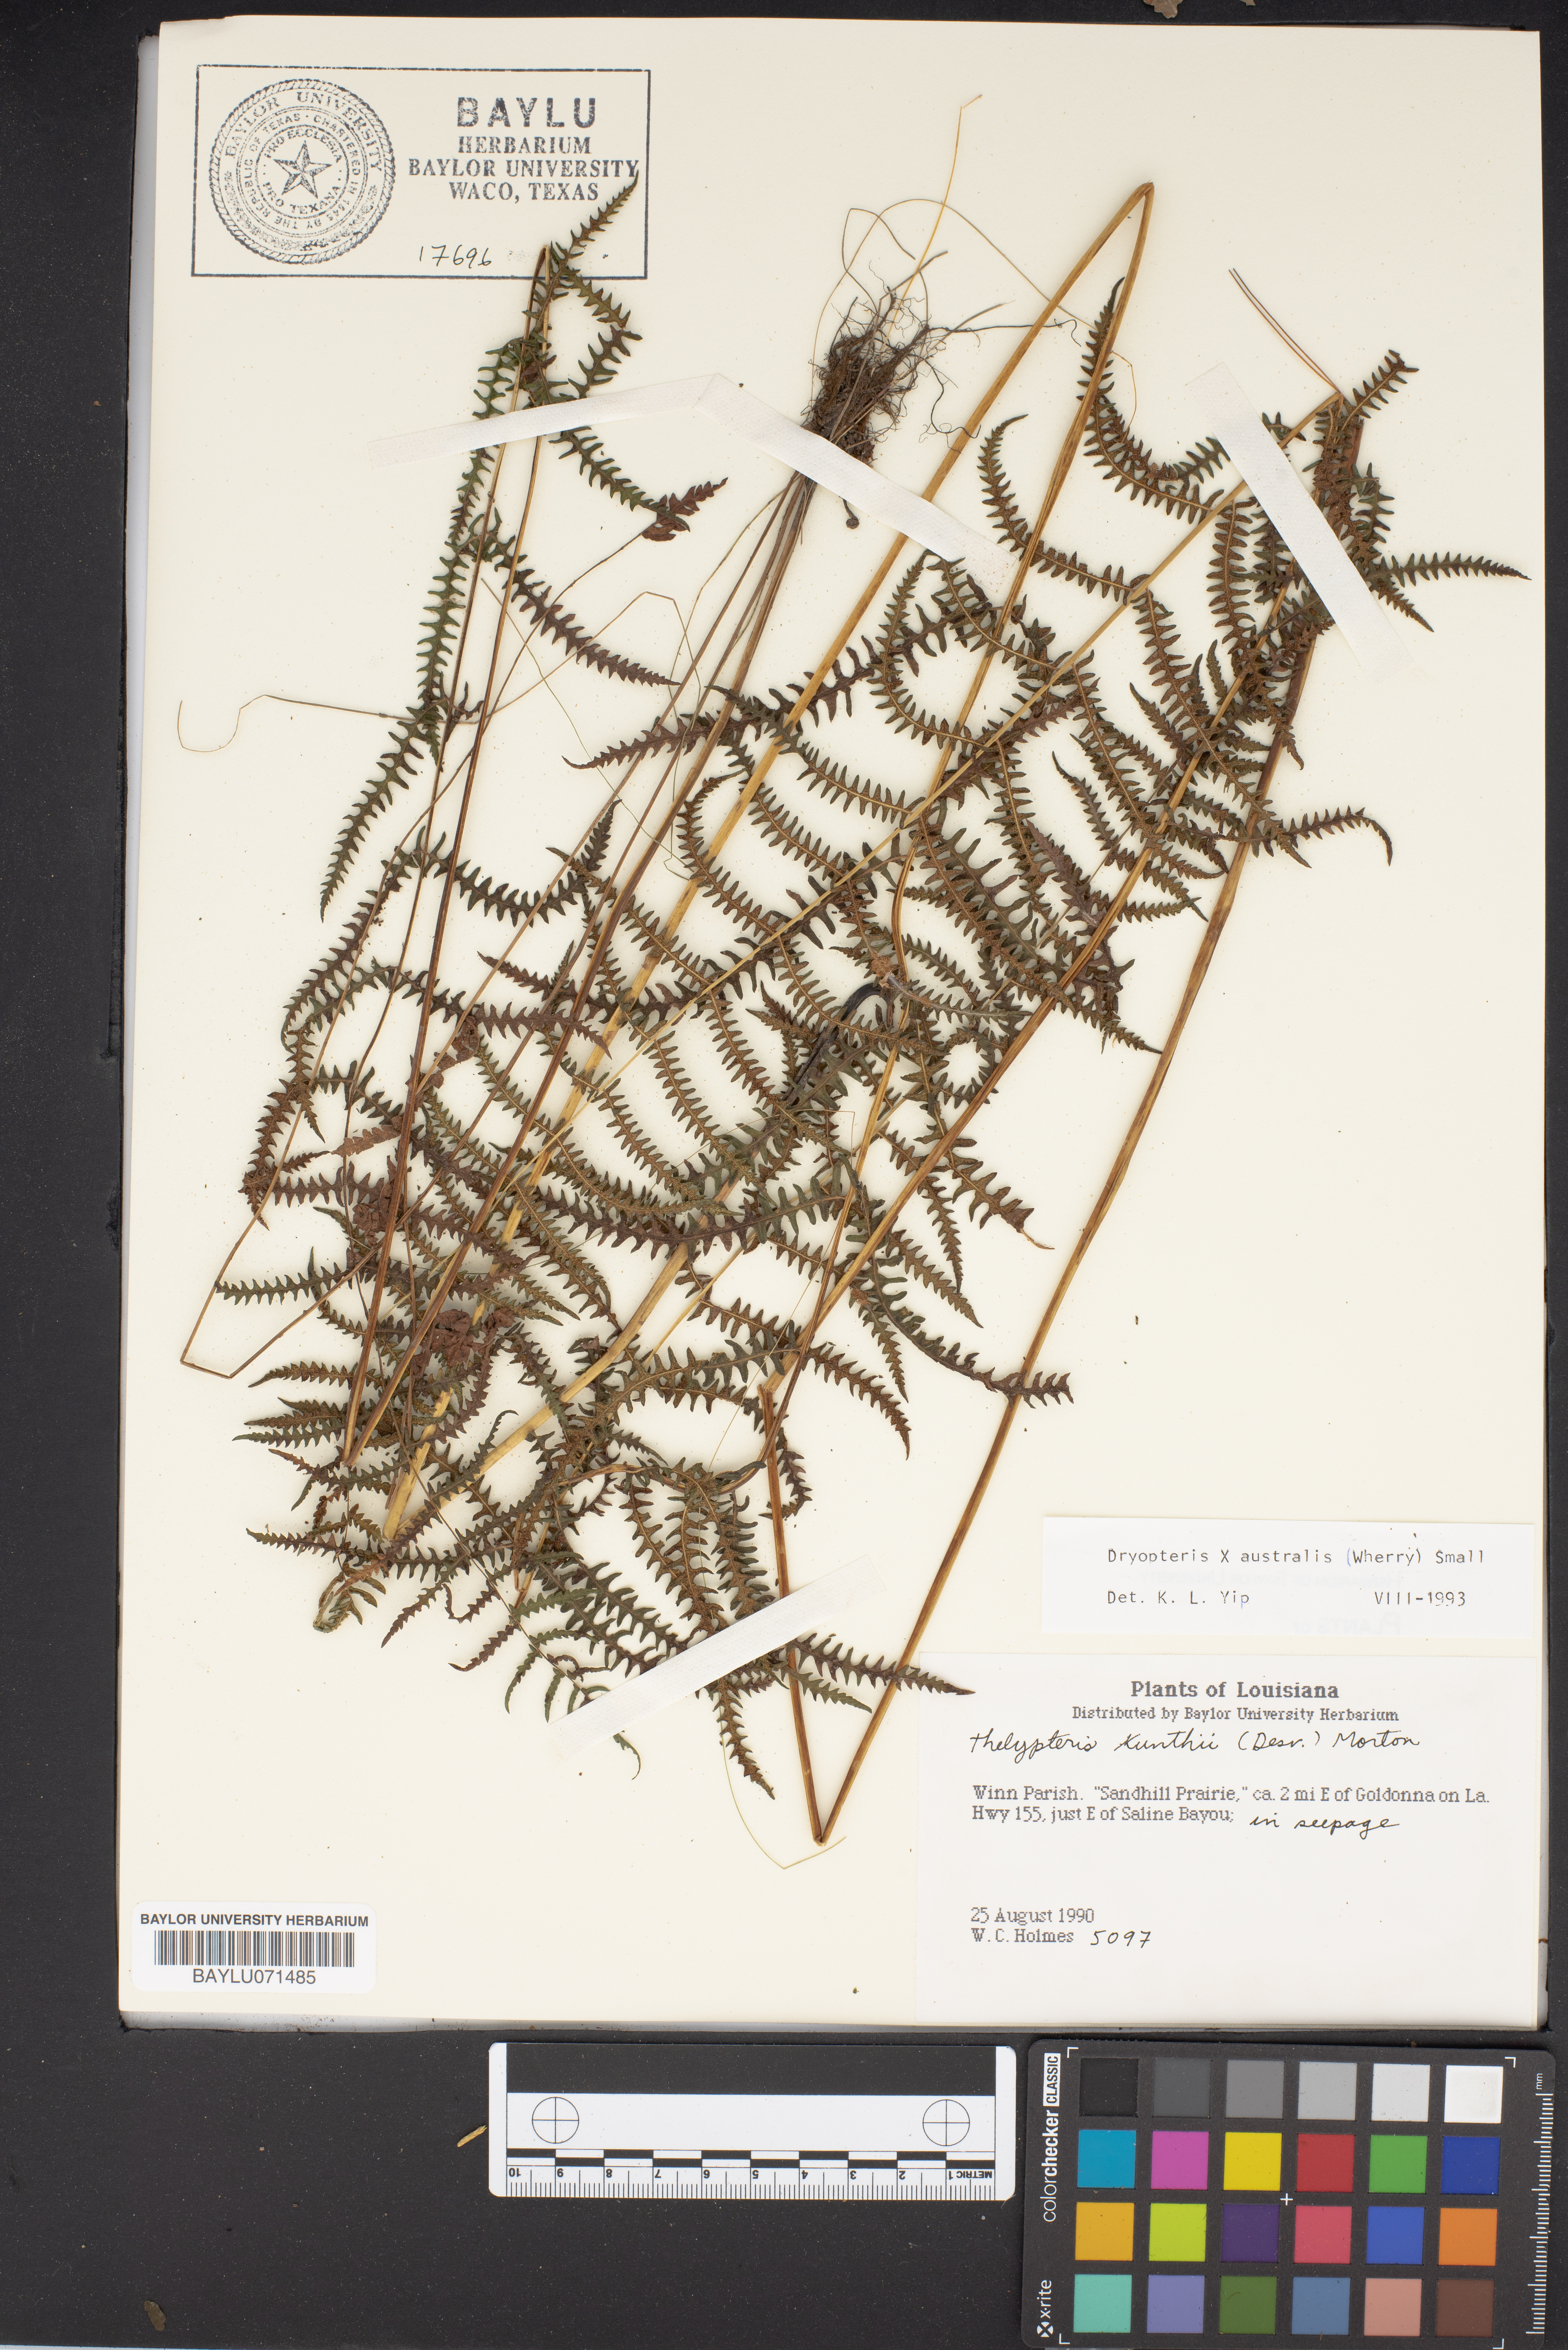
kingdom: Plantae
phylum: Tracheophyta
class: Polypodiopsida
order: Polypodiales
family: Thelypteridaceae
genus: Pelazoneuron
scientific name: Pelazoneuron kunthii
